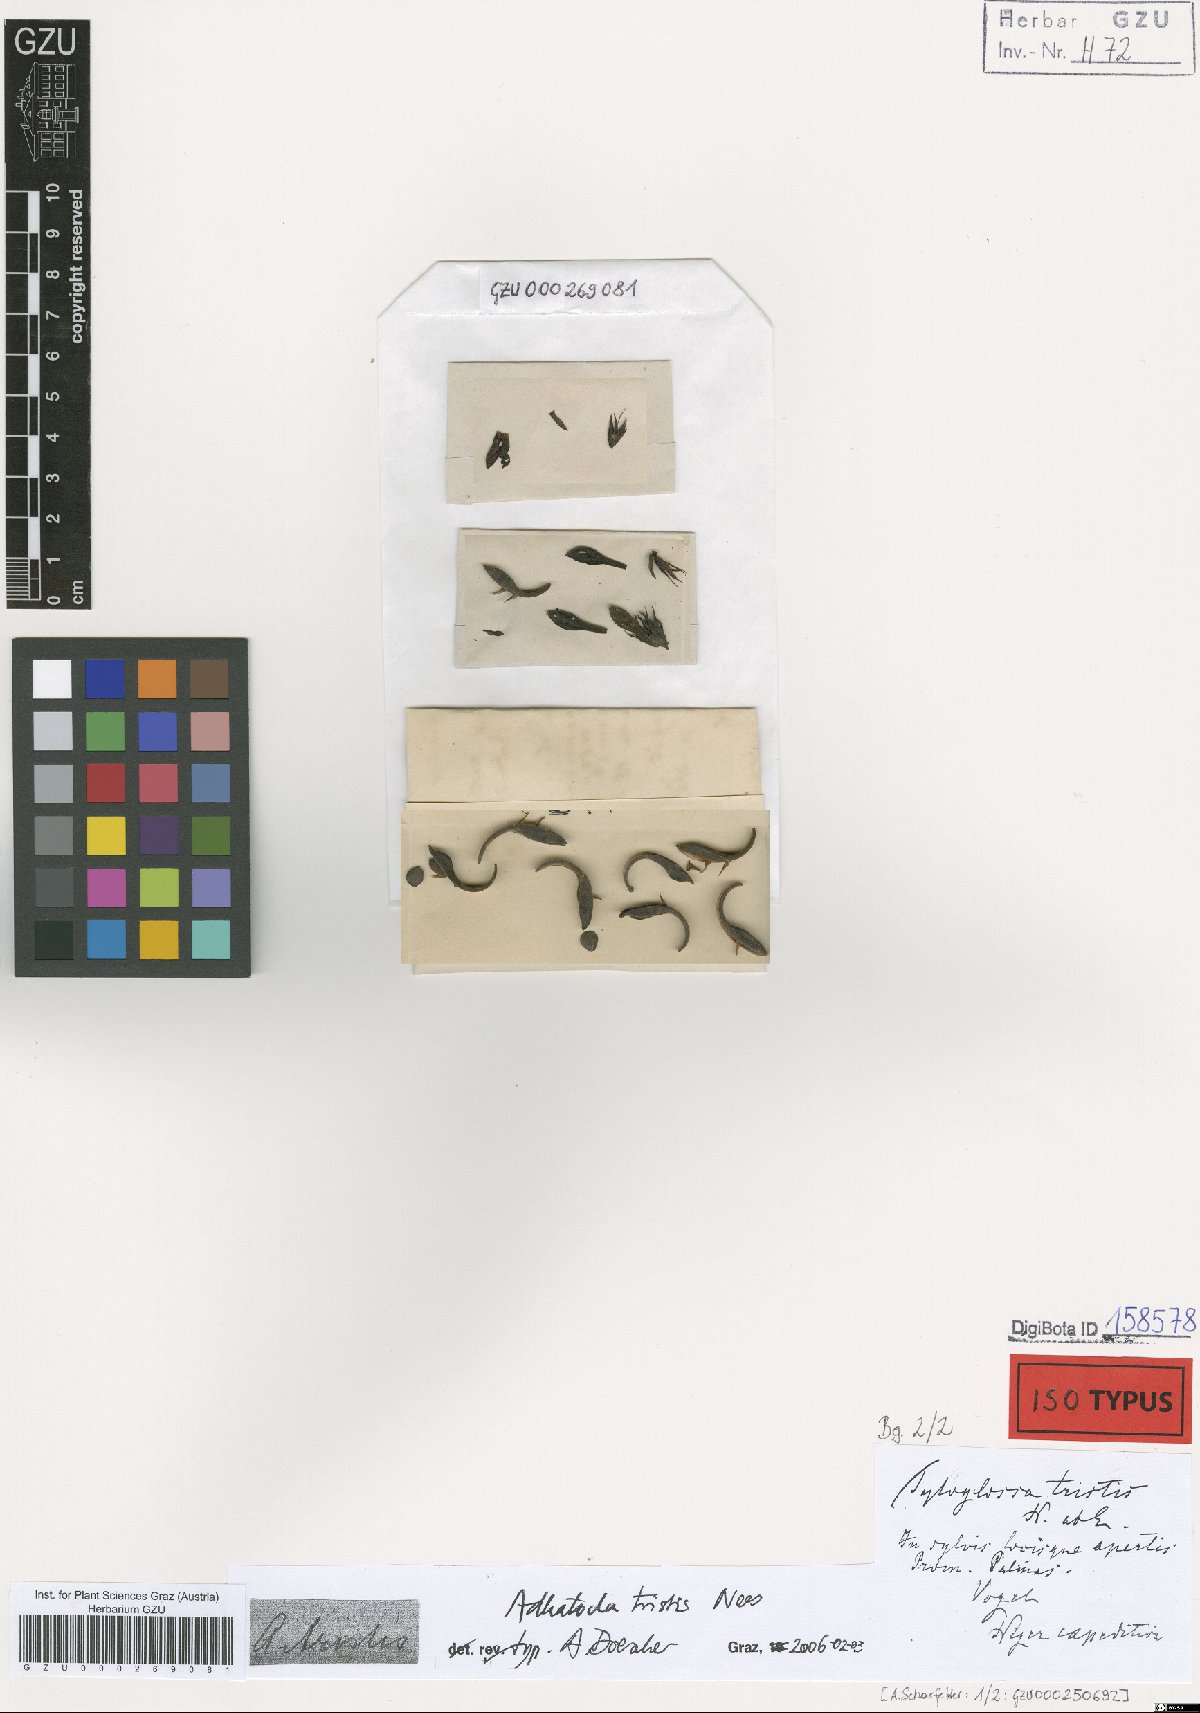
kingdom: Plantae
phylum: Tracheophyta
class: Magnoliopsida
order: Lamiales
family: Acanthaceae
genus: Justicia
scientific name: Justicia tristis
